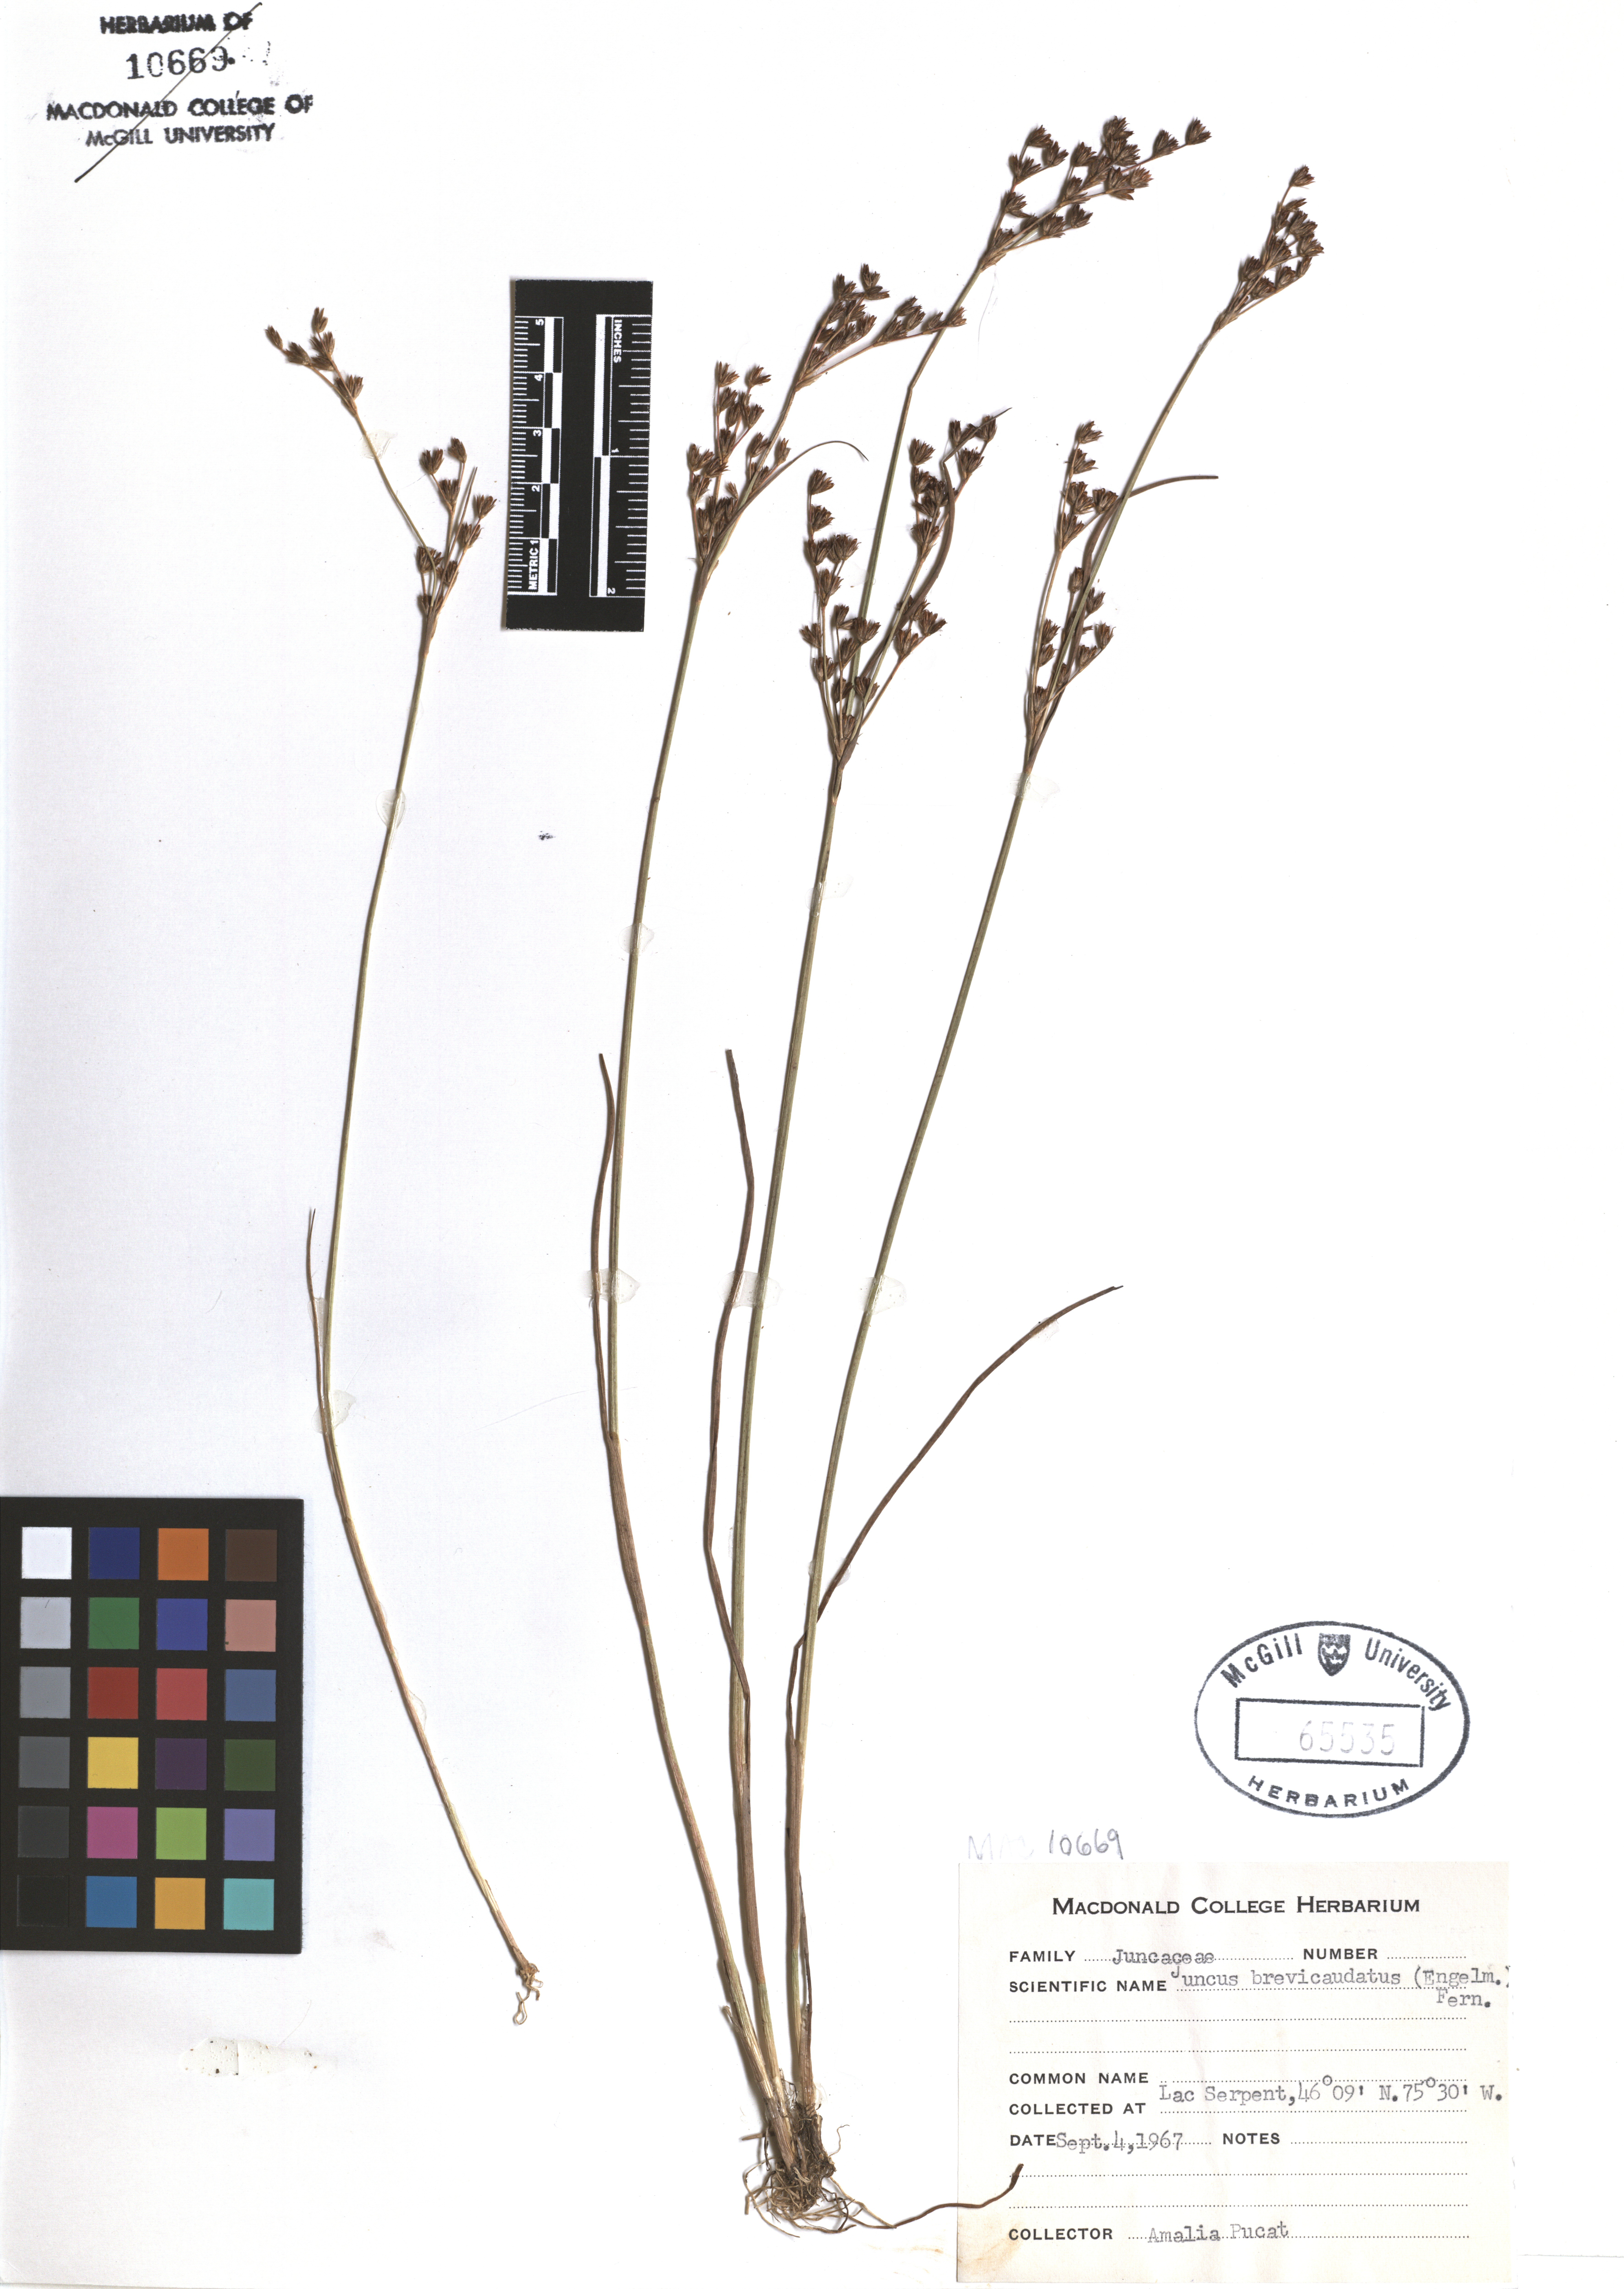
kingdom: Plantae
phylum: Tracheophyta
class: Liliopsida
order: Poales
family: Juncaceae
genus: Juncus
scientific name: Juncus brevicaudatus
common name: Narrow-panicle rush
